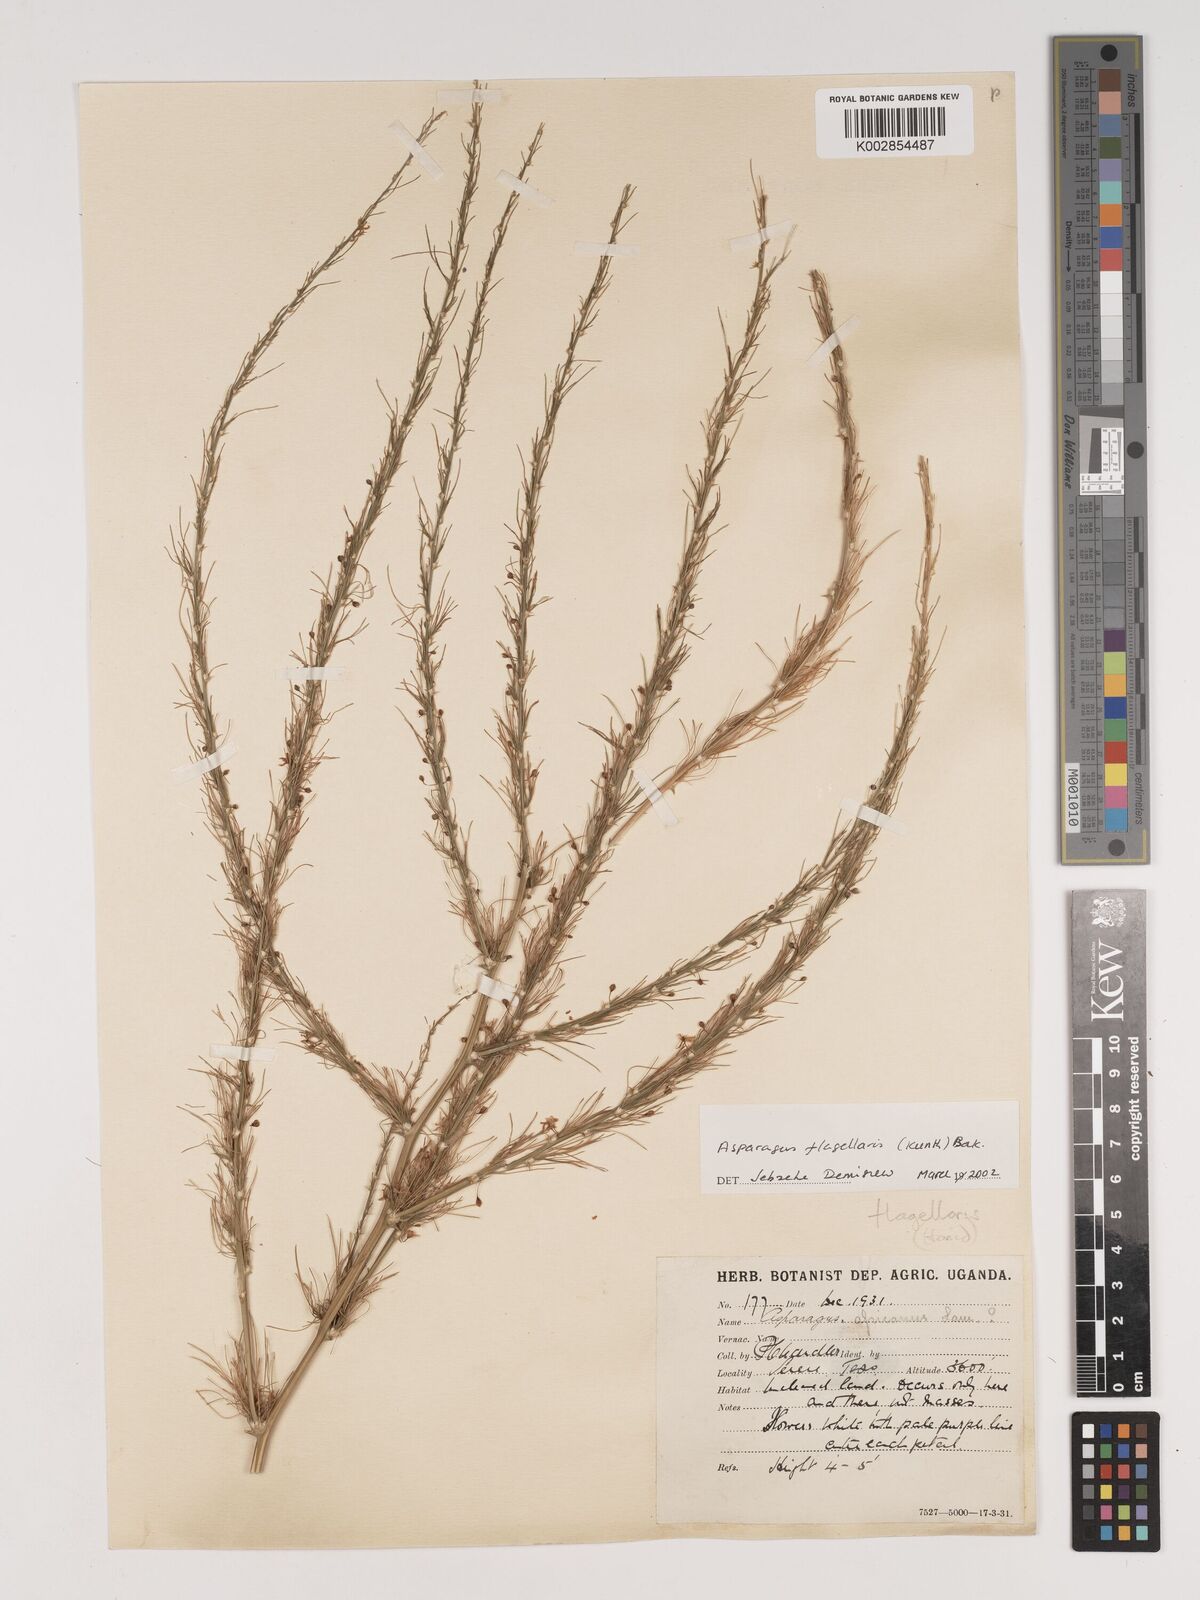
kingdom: Plantae
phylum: Tracheophyta
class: Liliopsida
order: Asparagales
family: Asparagaceae
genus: Asparagus
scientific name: Asparagus flagellaris
